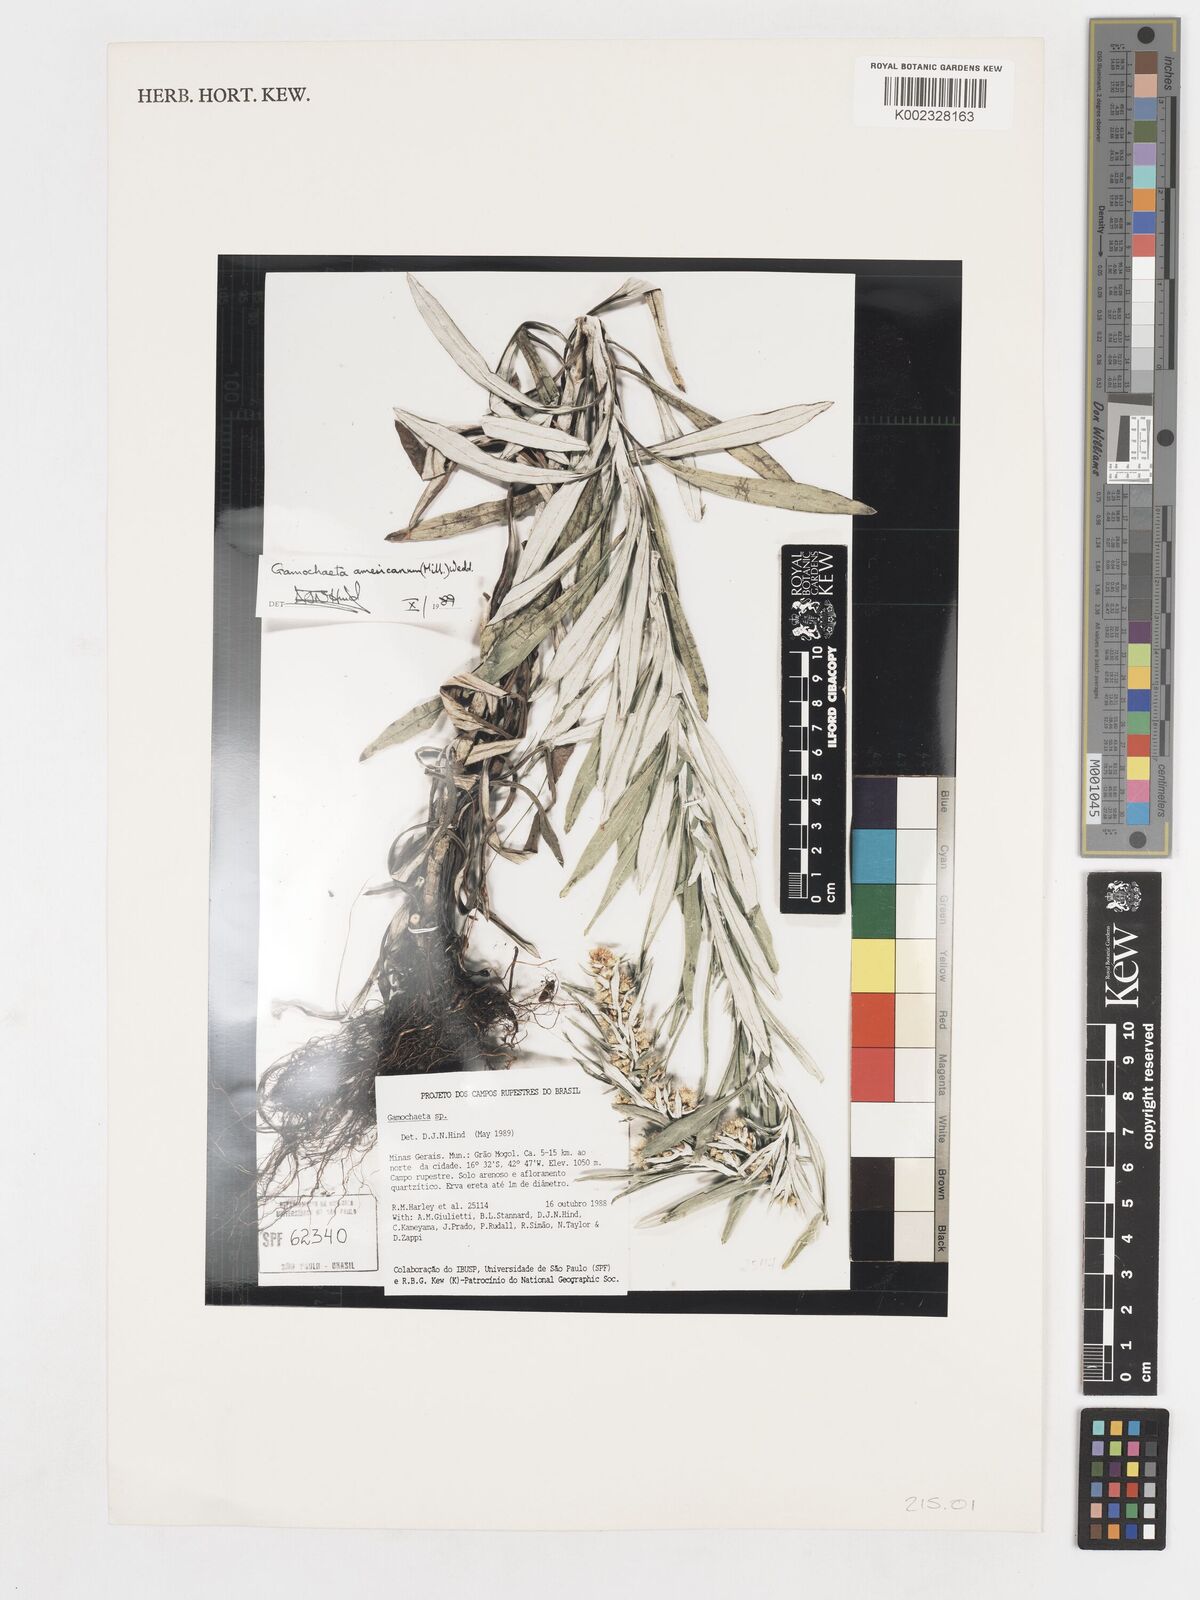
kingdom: Plantae
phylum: Tracheophyta
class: Magnoliopsida
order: Asterales
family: Asteraceae
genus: Gamochaeta
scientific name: Gamochaeta americana
